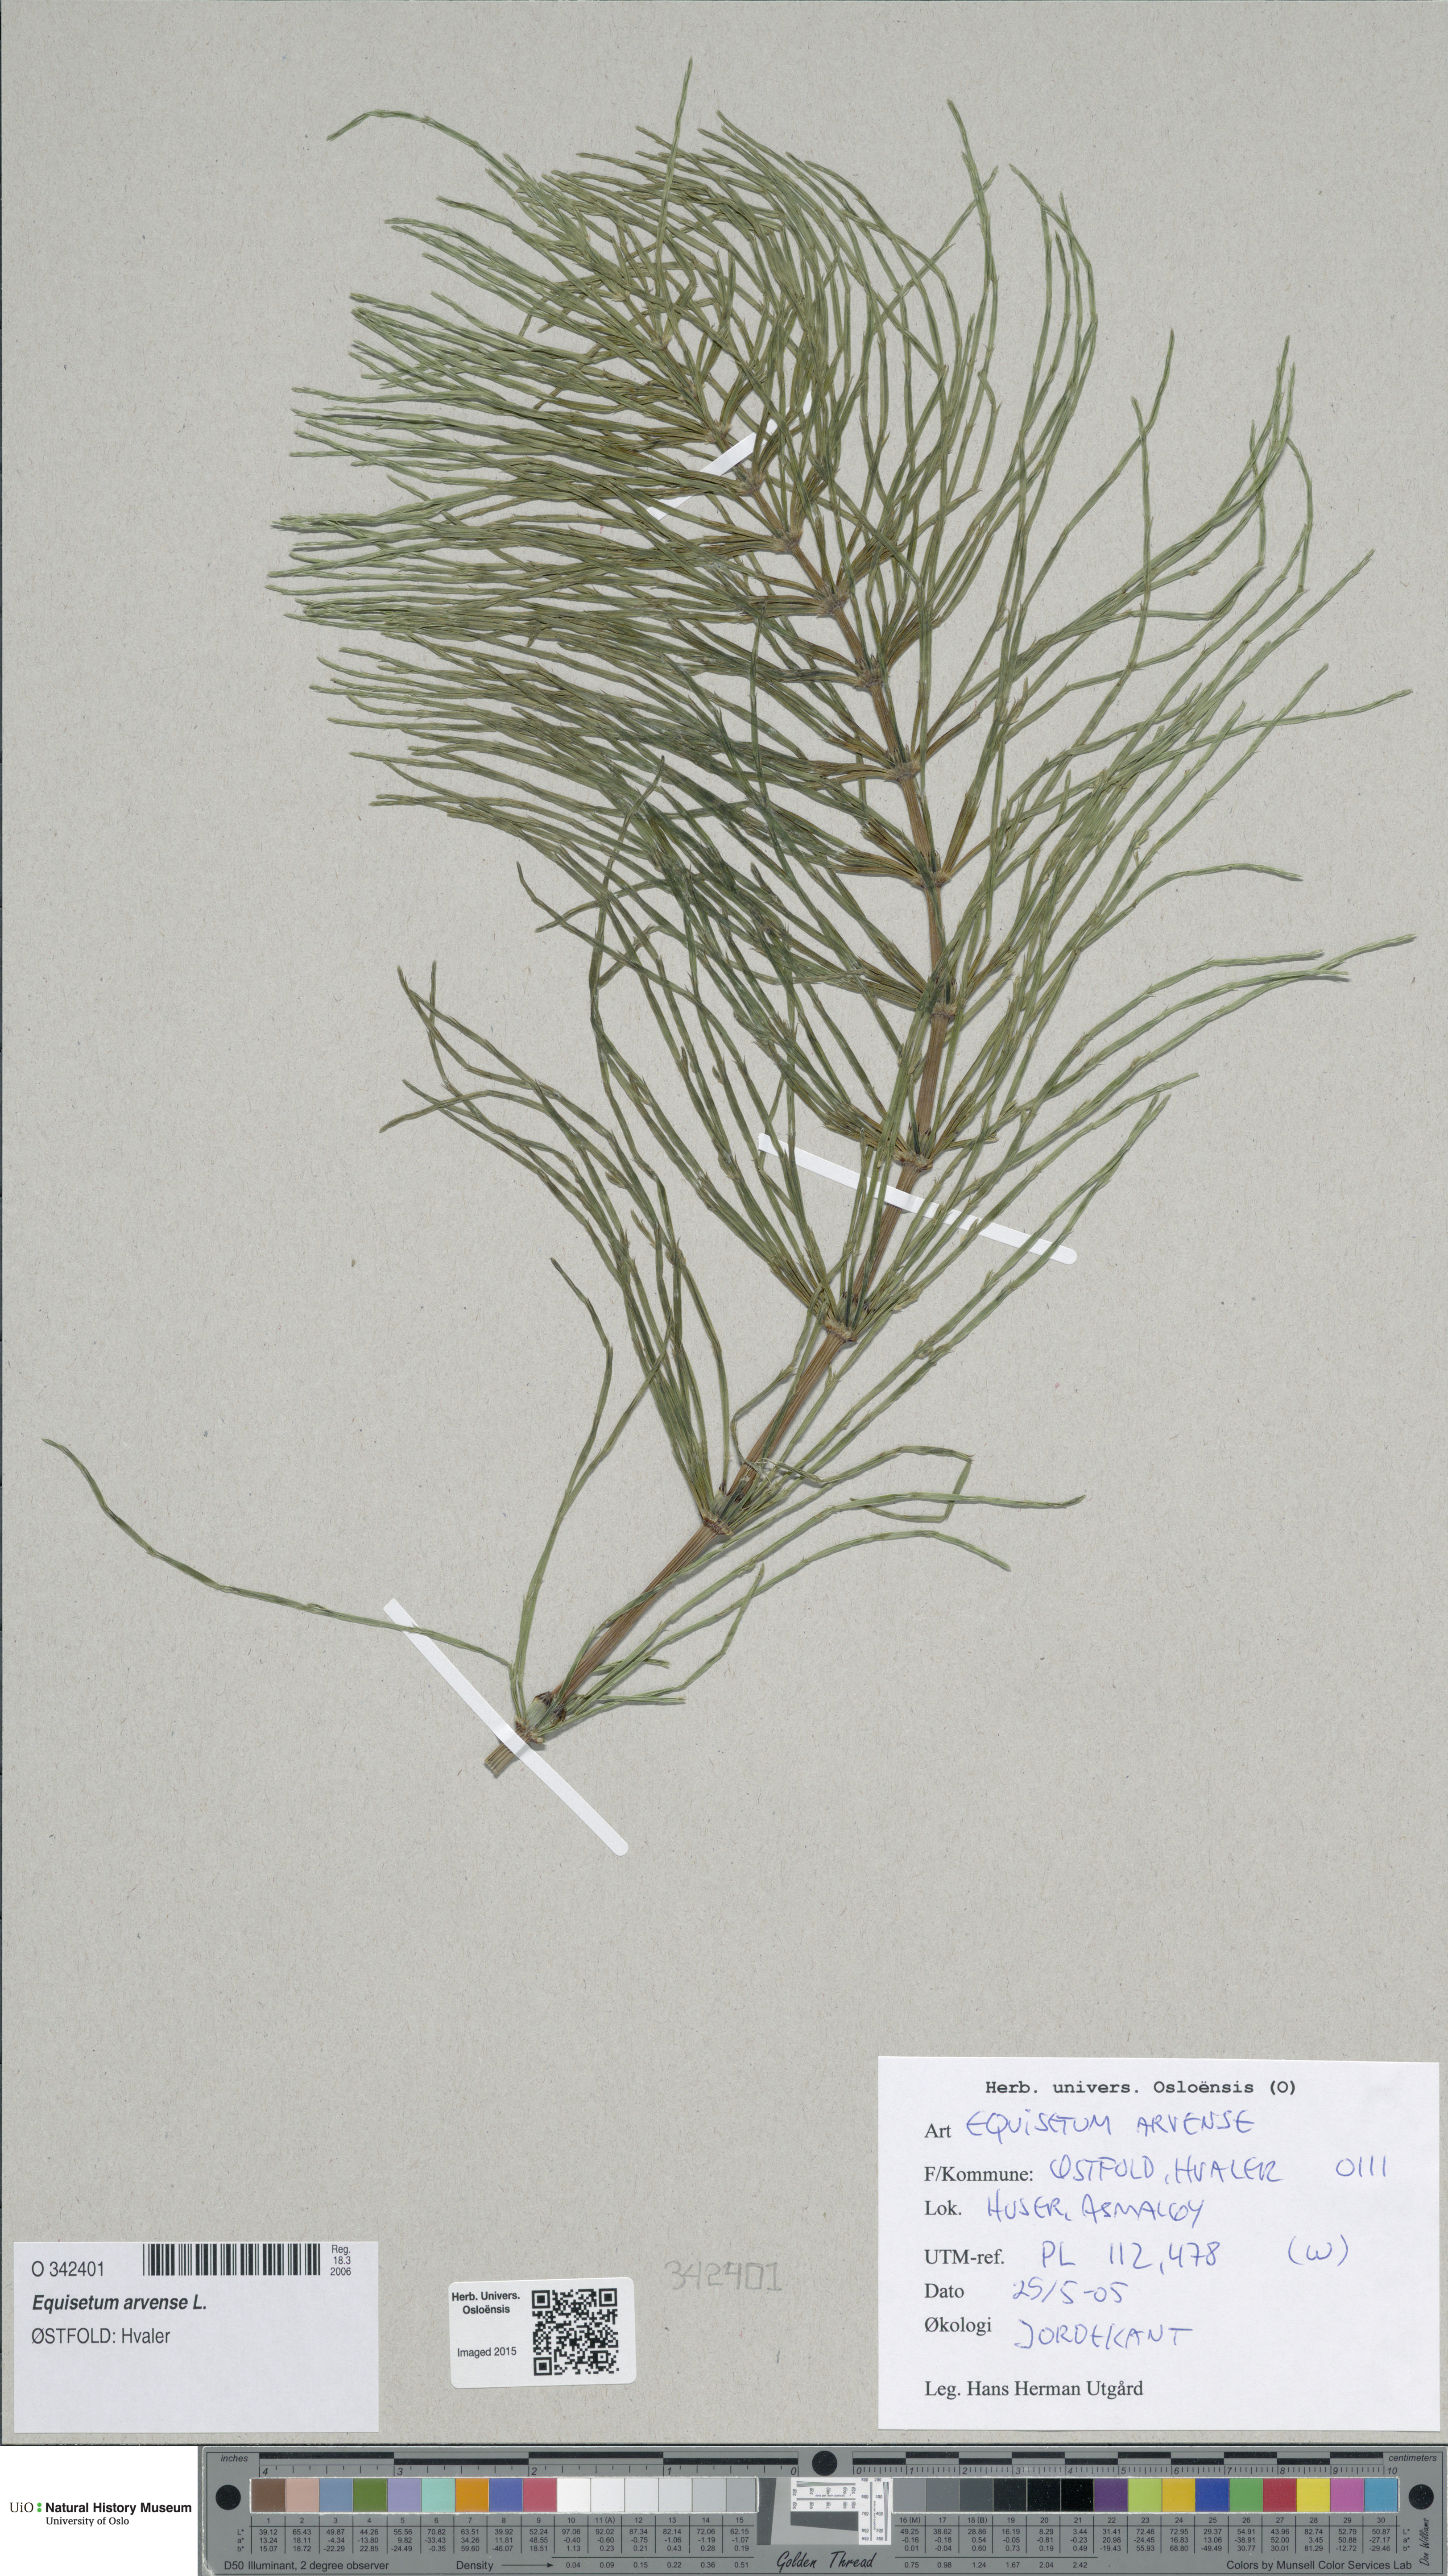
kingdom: Plantae
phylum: Tracheophyta
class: Polypodiopsida
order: Equisetales
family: Equisetaceae
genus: Equisetum
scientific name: Equisetum arvense
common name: Field horsetail
